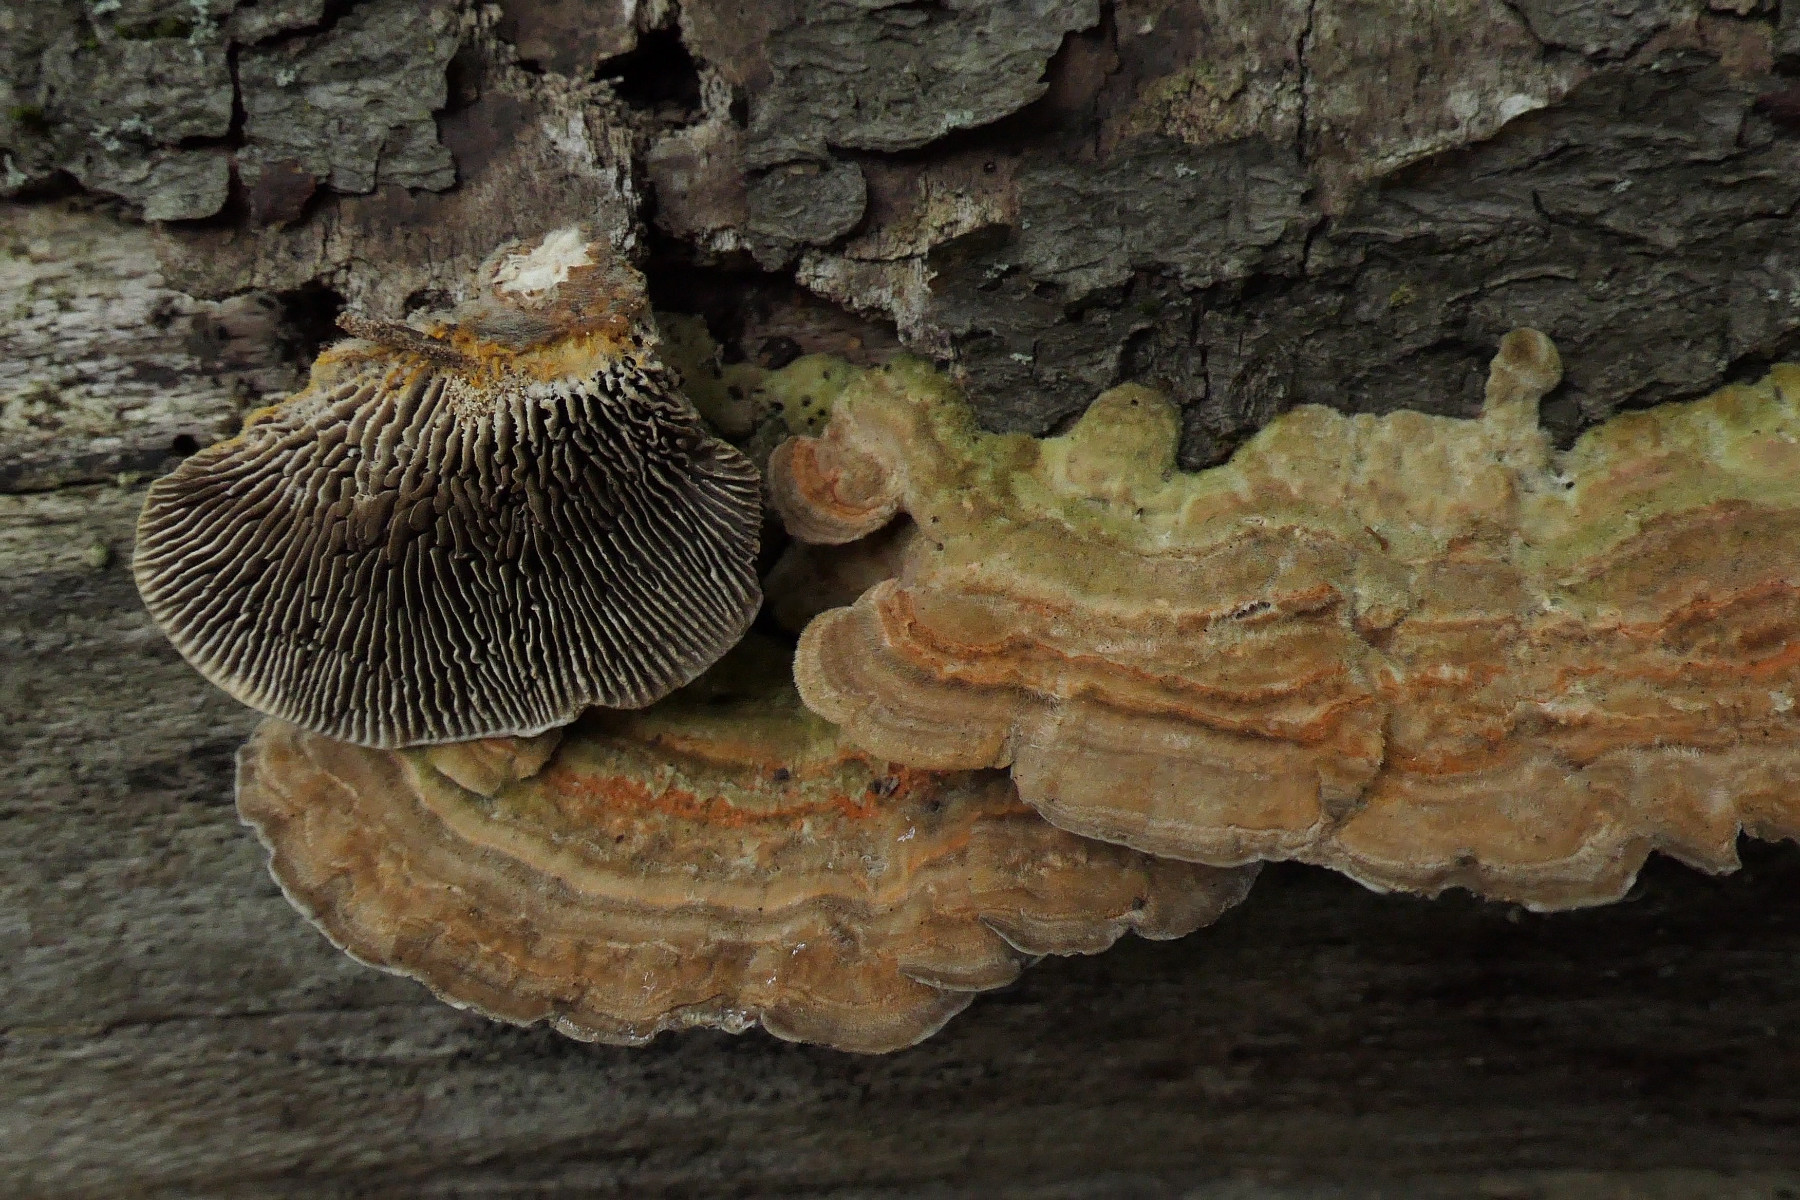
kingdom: Fungi
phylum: Basidiomycota
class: Agaricomycetes
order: Polyporales
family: Polyporaceae
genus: Lenzites
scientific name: Lenzites betulinus
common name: birke-læderporesvamp
